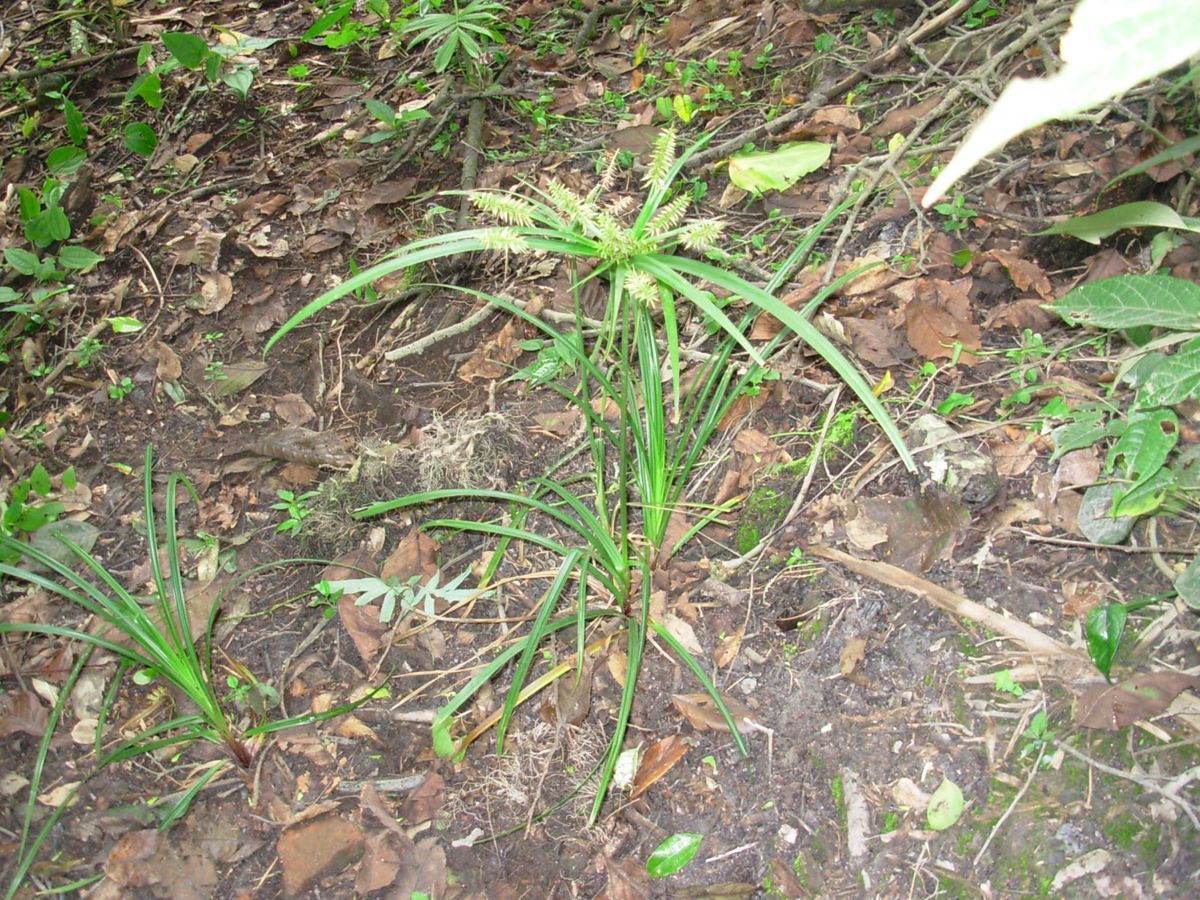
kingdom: Plantae
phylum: Tracheophyta
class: Liliopsida
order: Poales
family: Cyperaceae
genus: Cyperus
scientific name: Cyperus hermaphroditus
